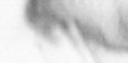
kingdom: Animalia
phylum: Arthropoda
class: Copepoda
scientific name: Copepoda
